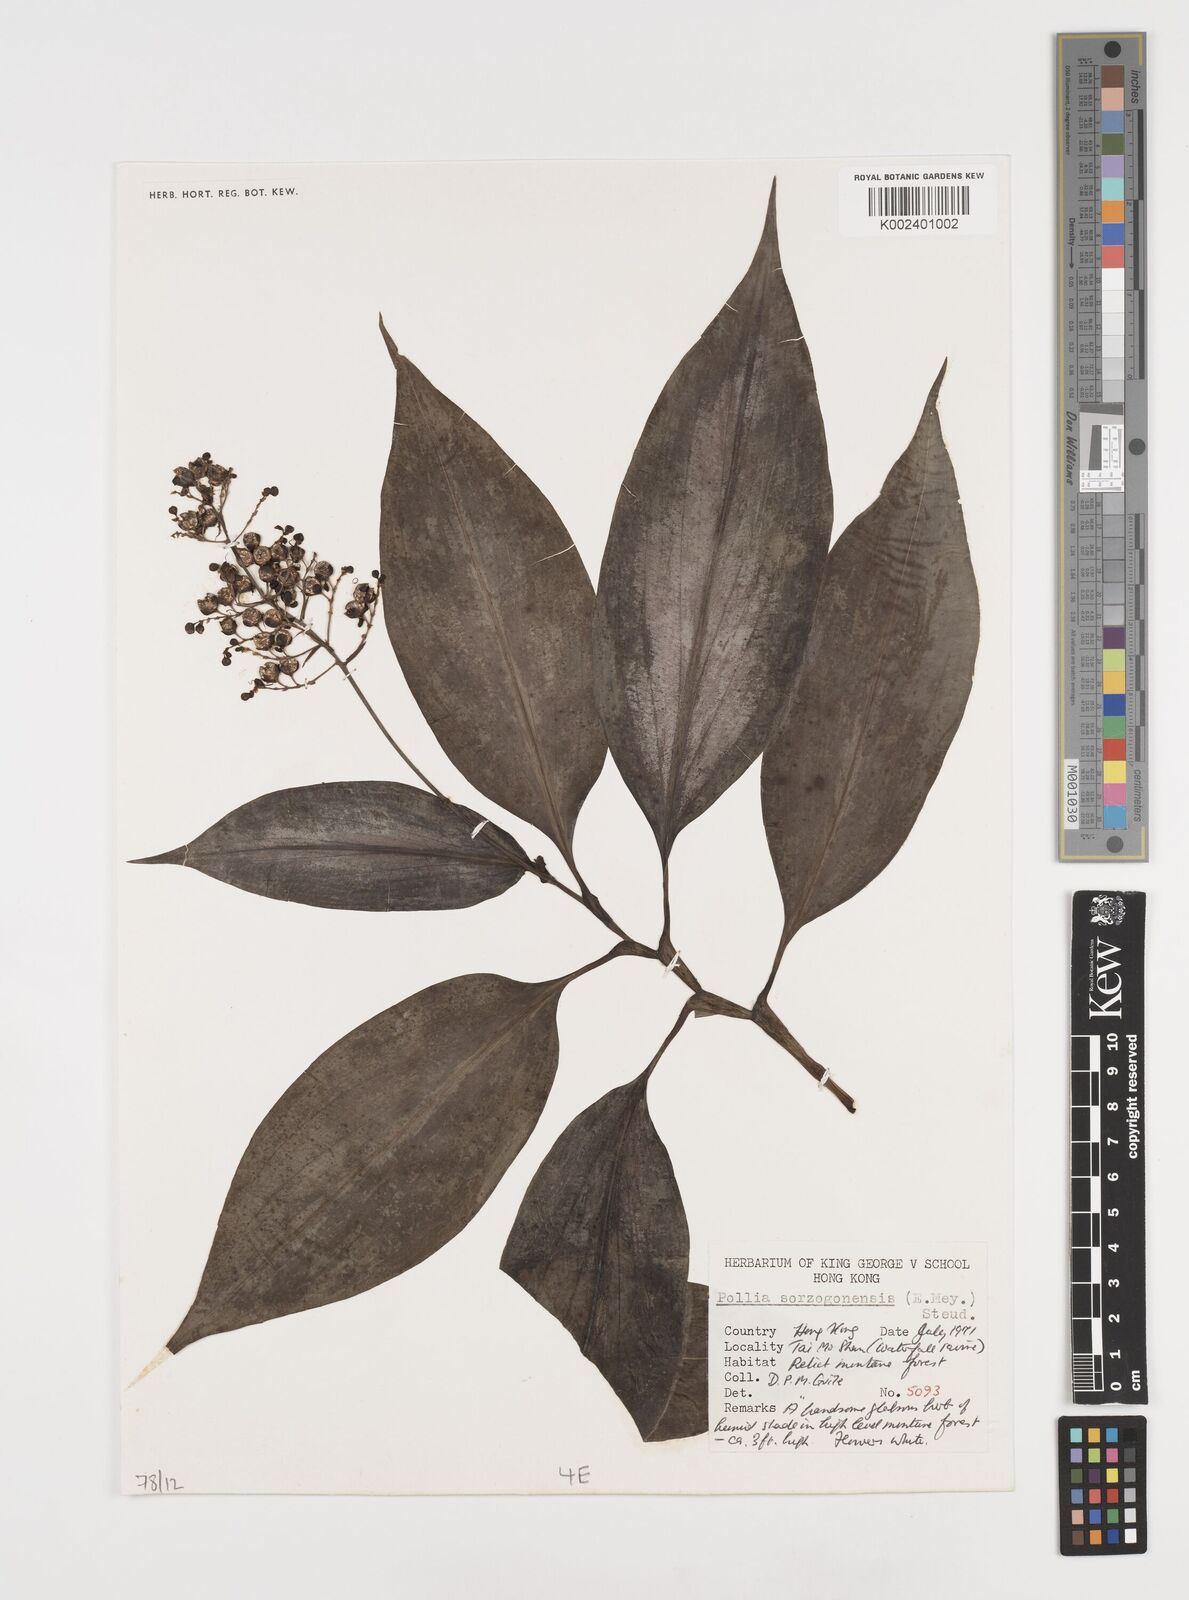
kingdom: Plantae
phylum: Tracheophyta
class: Liliopsida
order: Commelinales
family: Commelinaceae
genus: Pollia
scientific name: Pollia secundiflora
